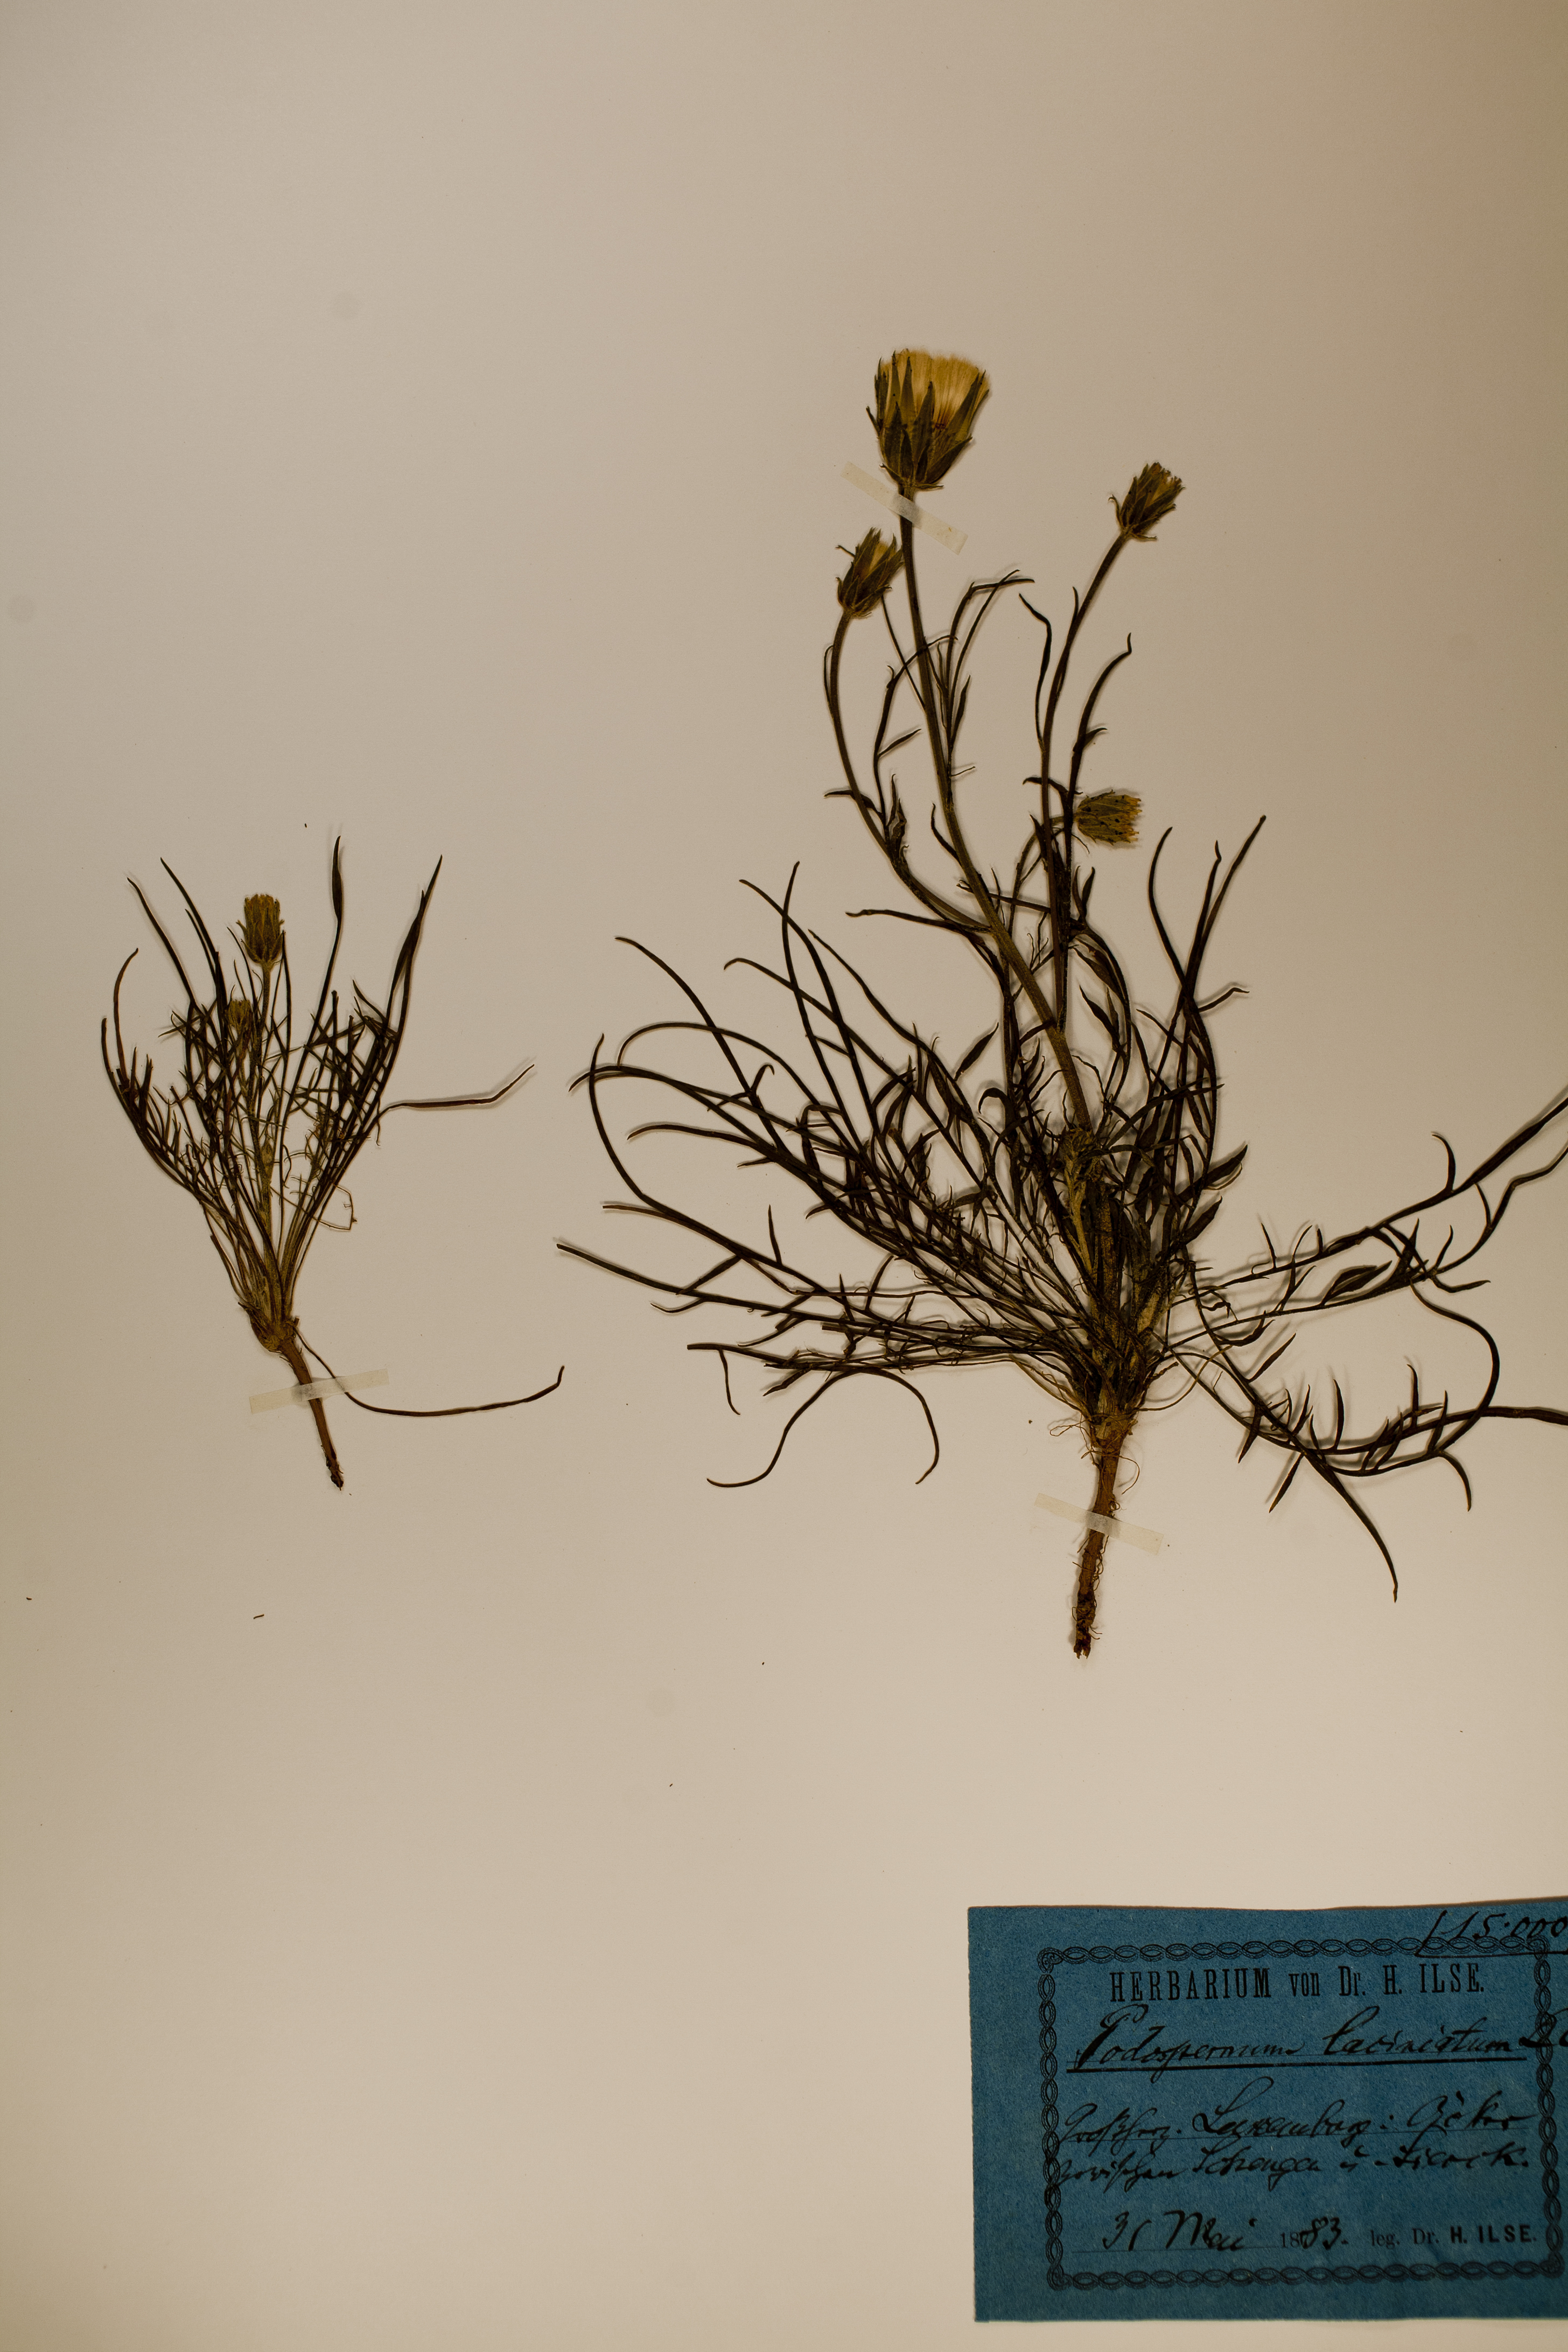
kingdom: Plantae
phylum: Tracheophyta
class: Magnoliopsida
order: Asterales
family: Asteraceae
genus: Scorzonera
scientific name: Scorzonera laciniata
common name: Cutleaf vipergrass
